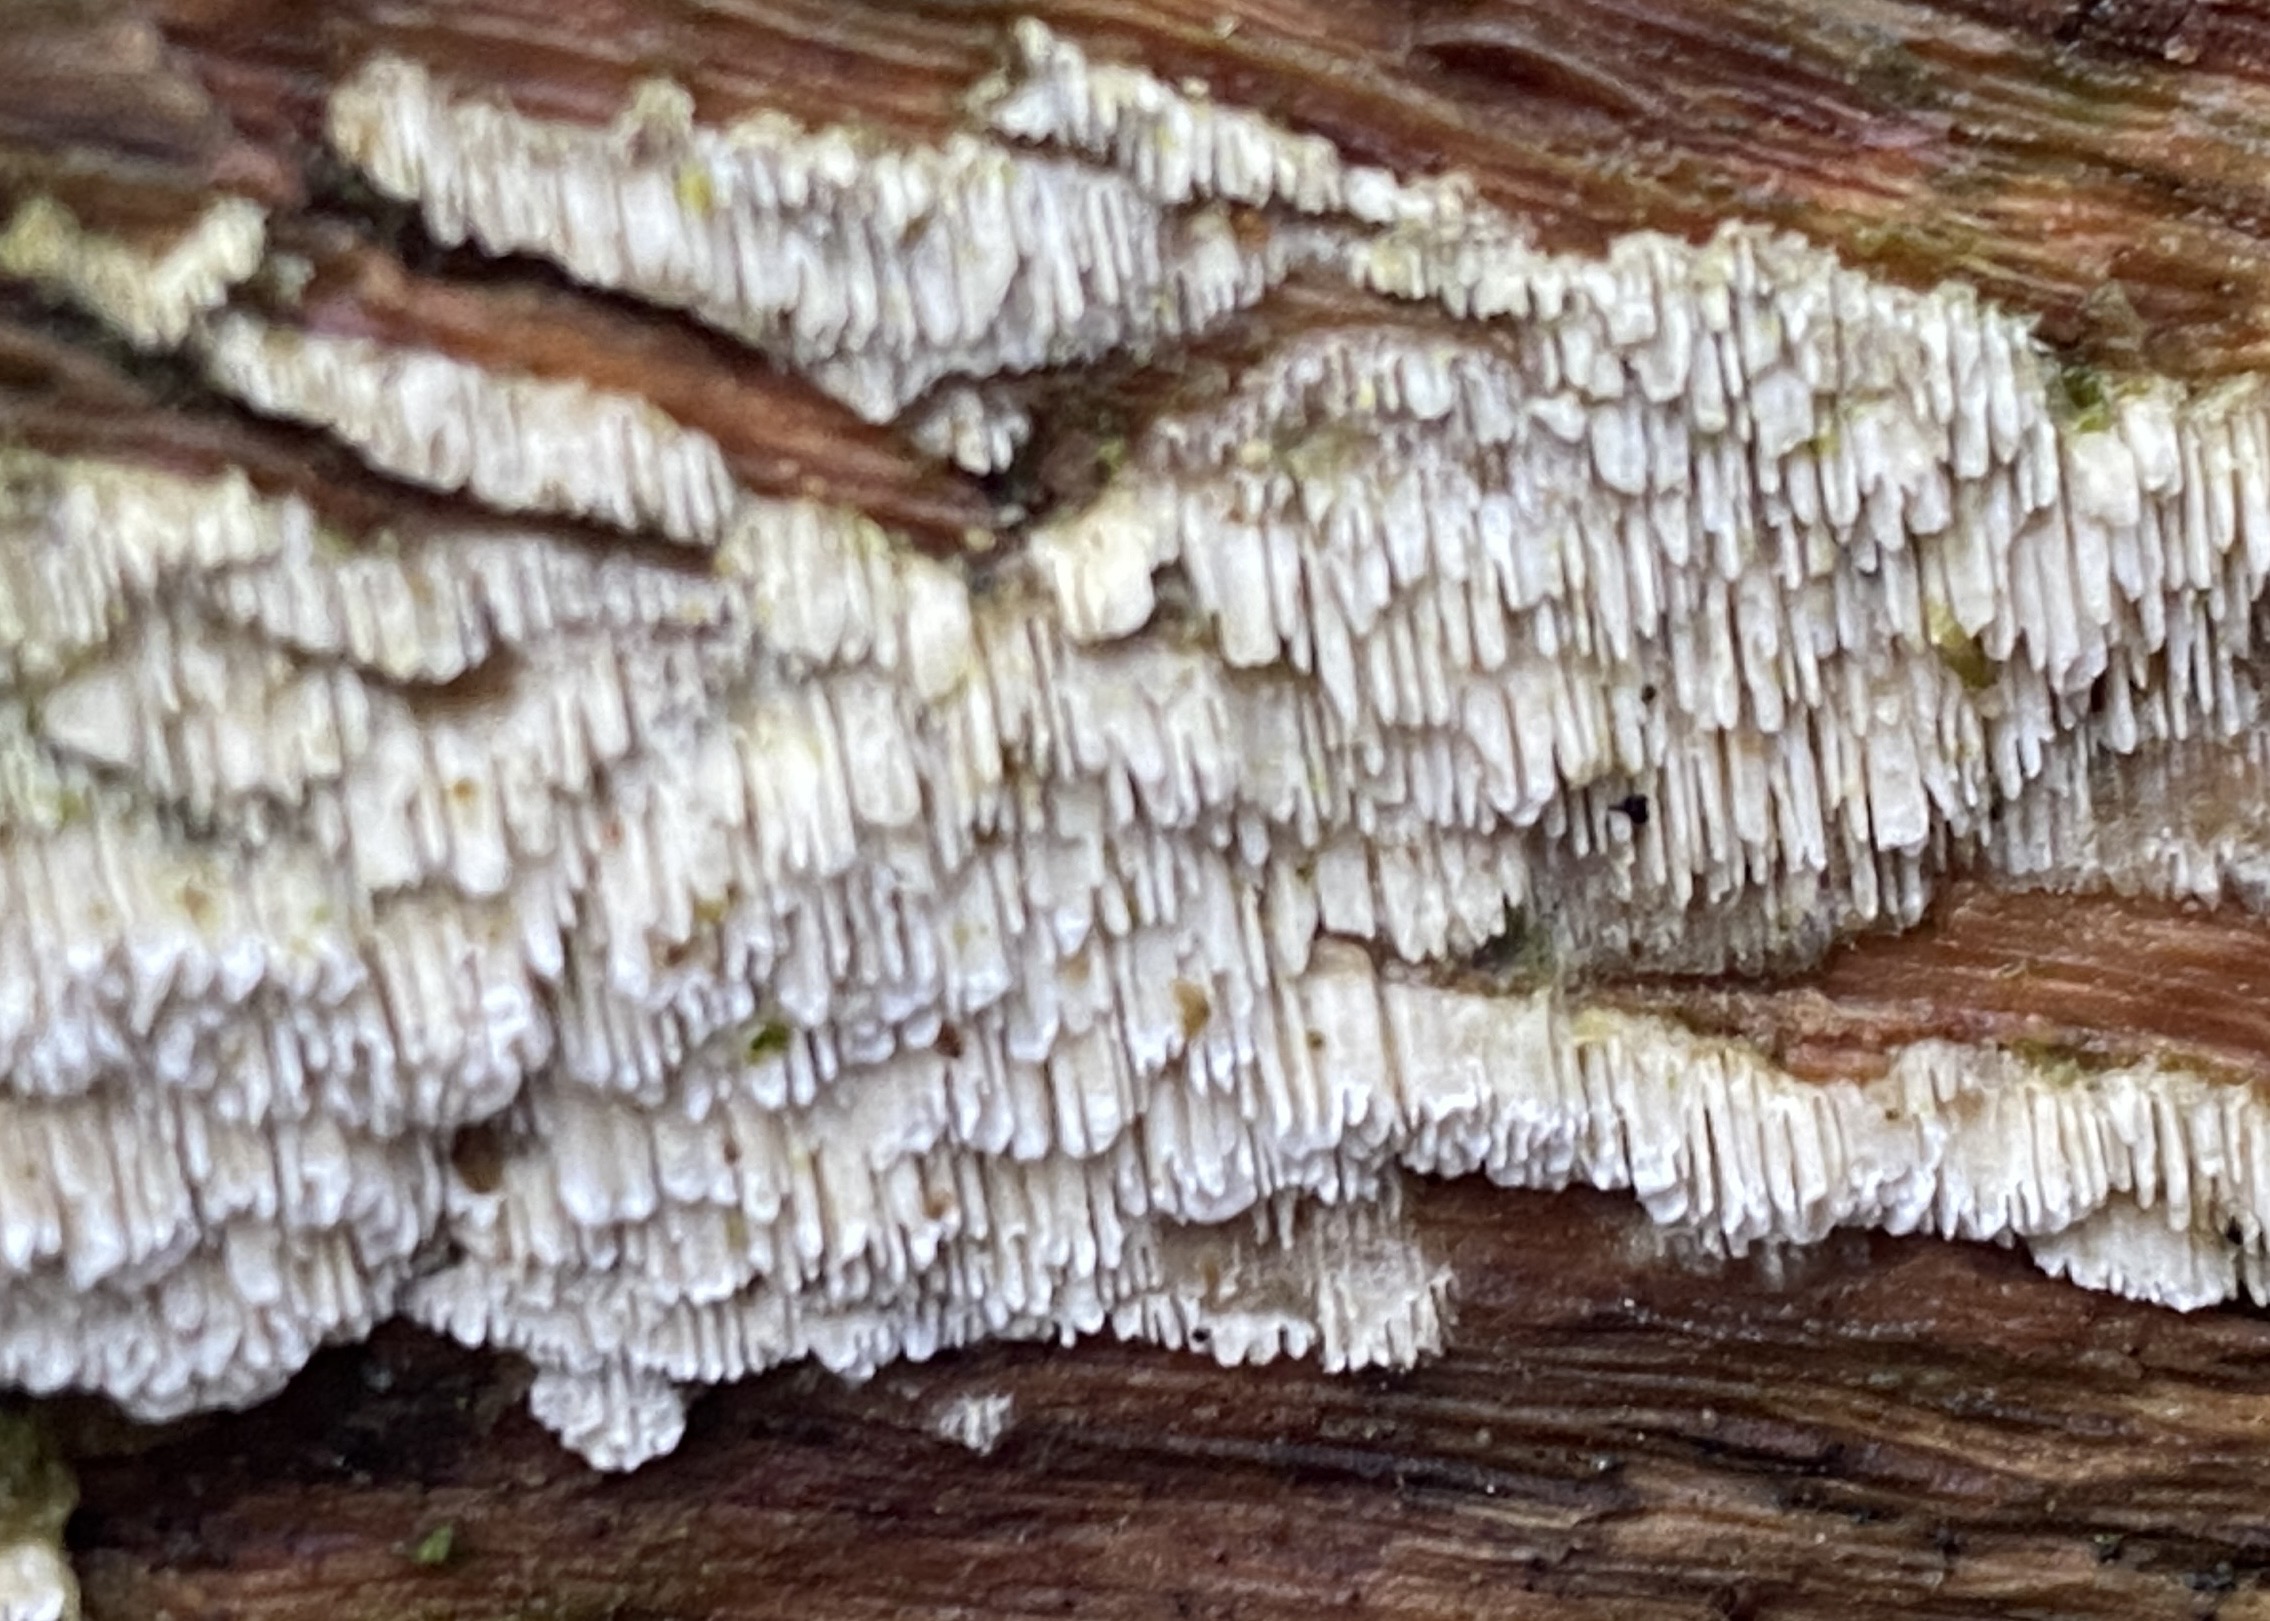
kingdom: Fungi
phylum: Basidiomycota
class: Agaricomycetes
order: Hymenochaetales
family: Schizoporaceae
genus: Schizopora
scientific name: Schizopora paradoxa
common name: hvid tandsvamp
